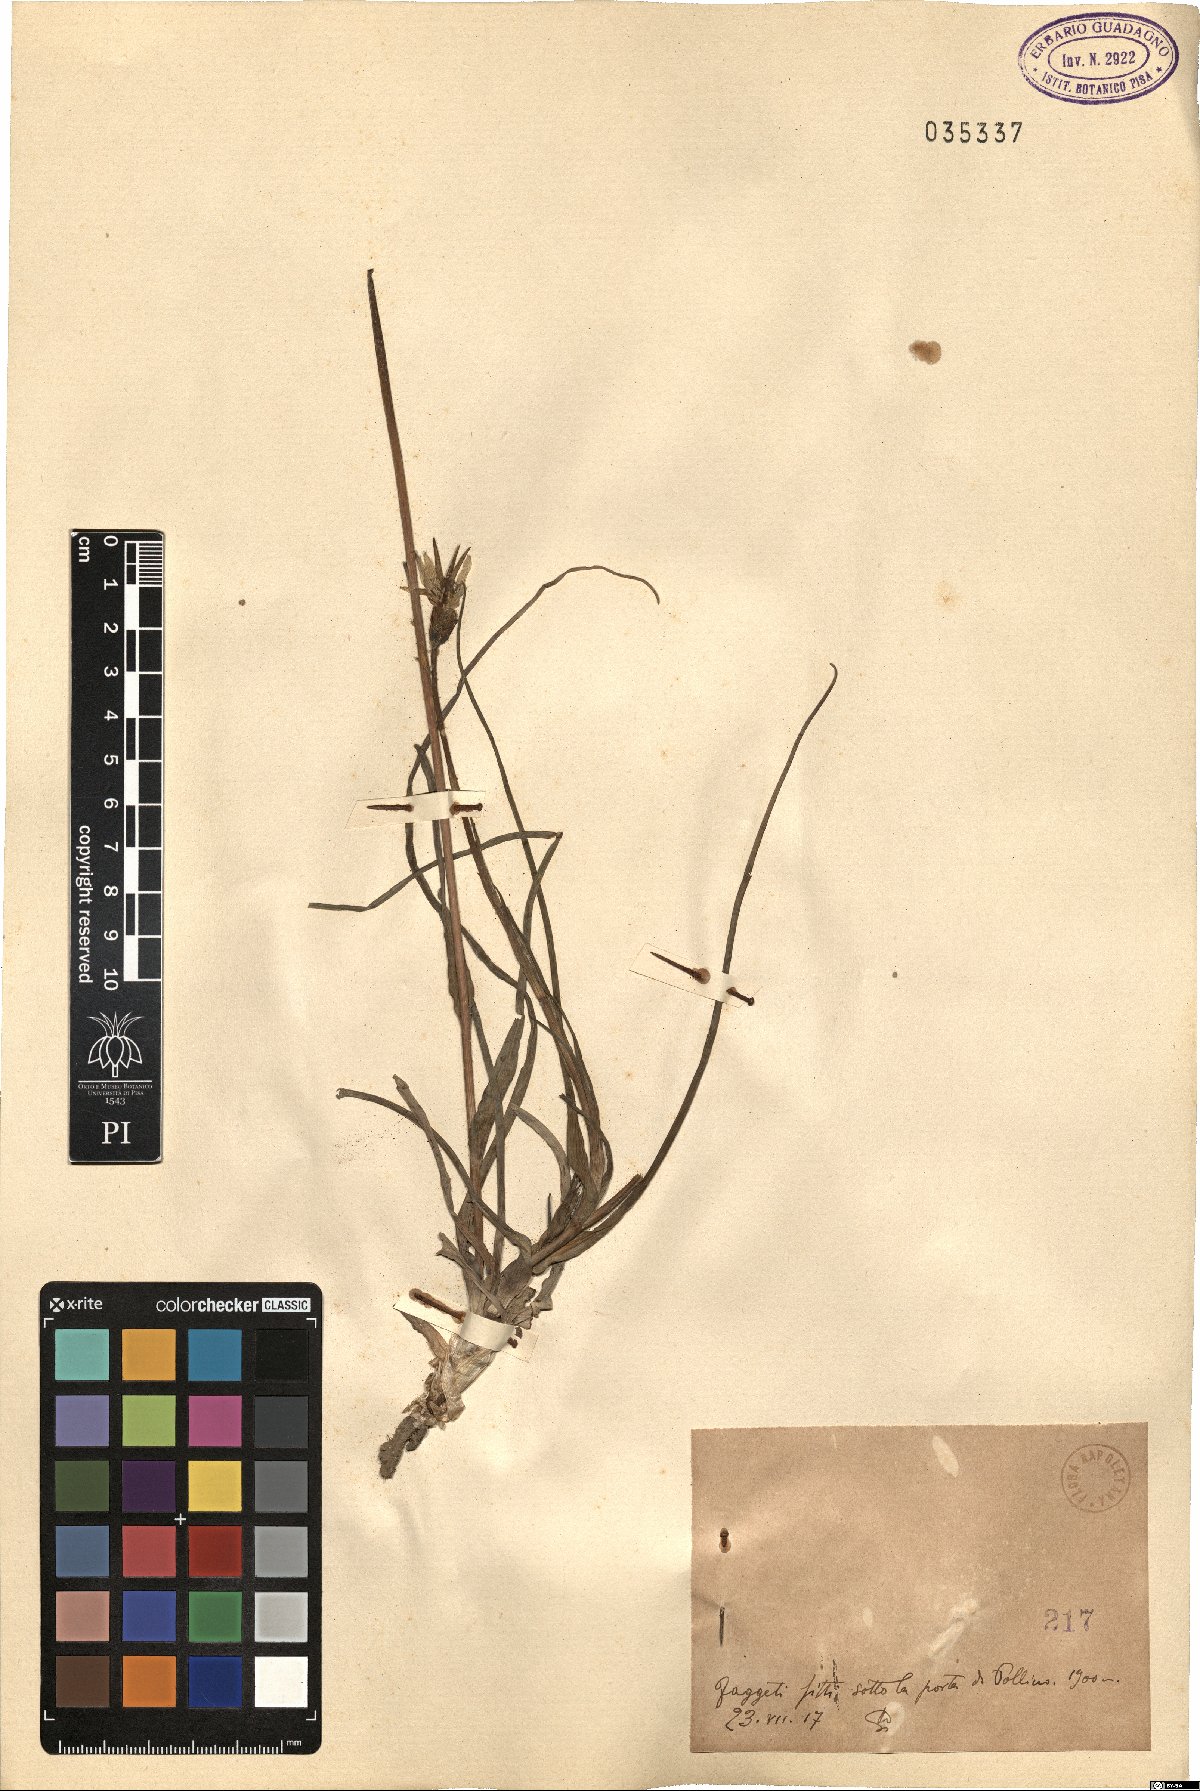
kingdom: Plantae
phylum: Tracheophyta
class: Magnoliopsida
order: Asterales
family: Asteraceae
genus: Geropogon
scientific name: Geropogon
